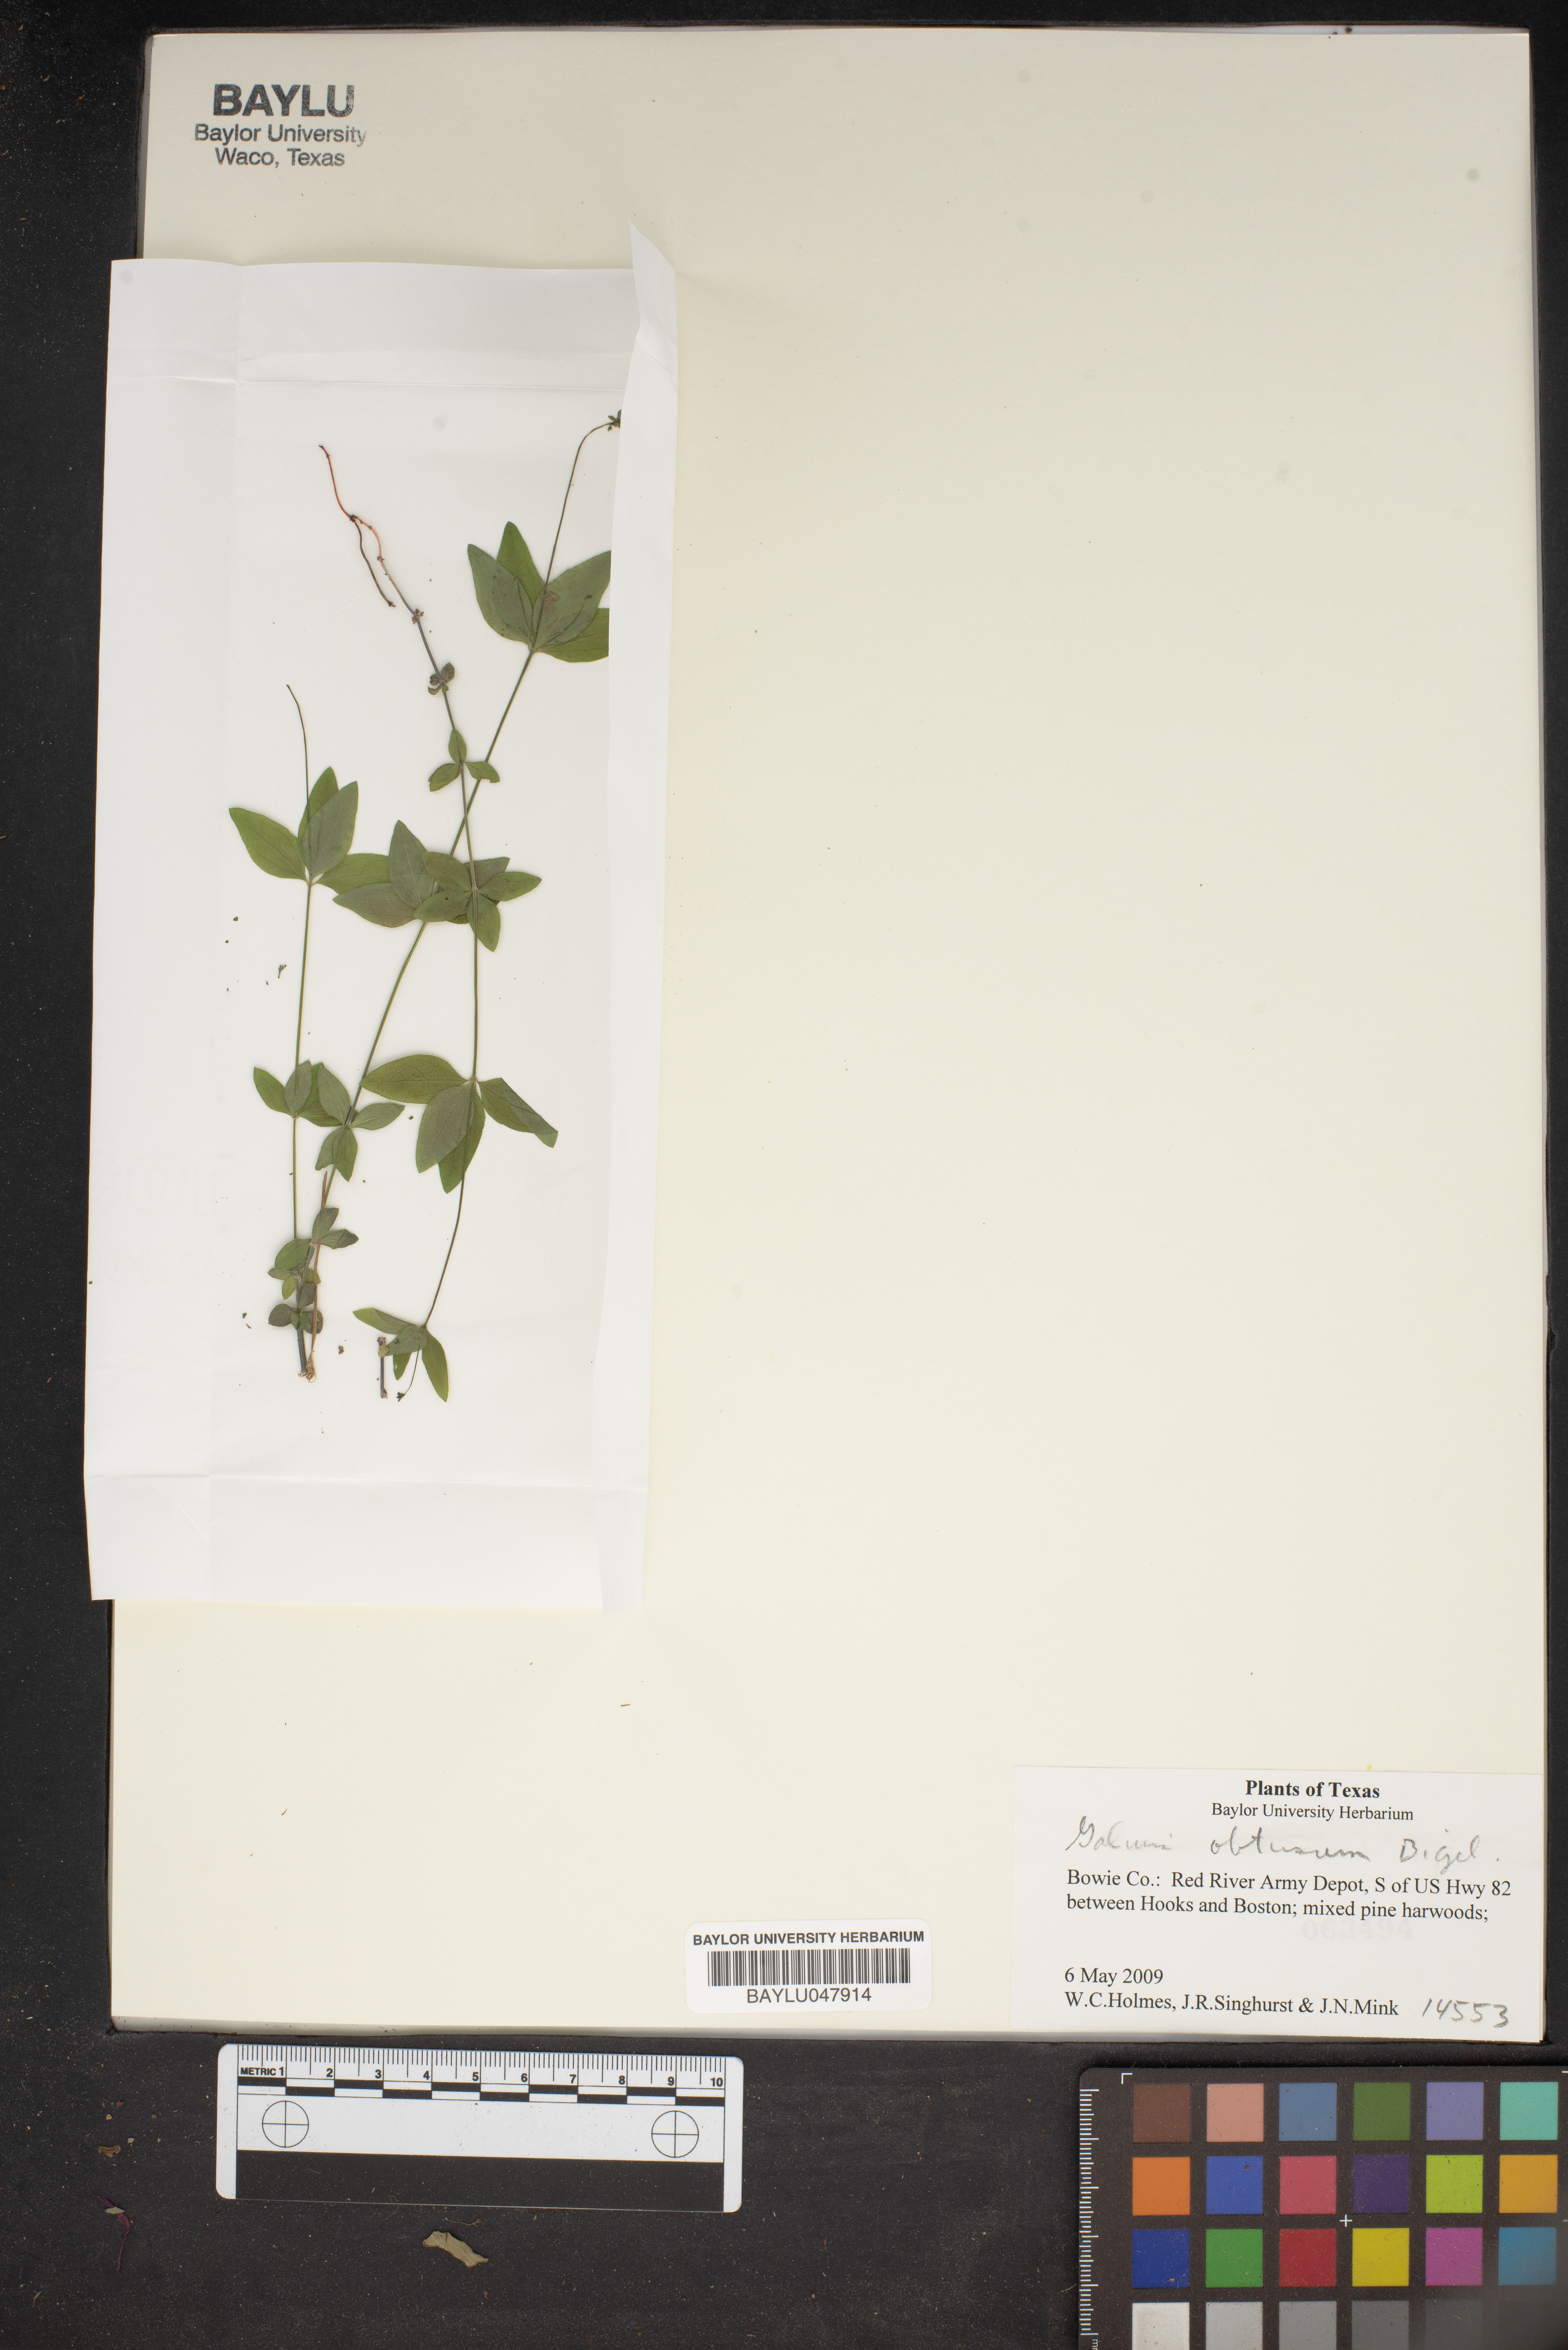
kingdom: Plantae
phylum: Tracheophyta
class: Magnoliopsida
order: Gentianales
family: Rubiaceae
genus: Galium
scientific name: Galium obtusum
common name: Blunt-leaved bedstraw
